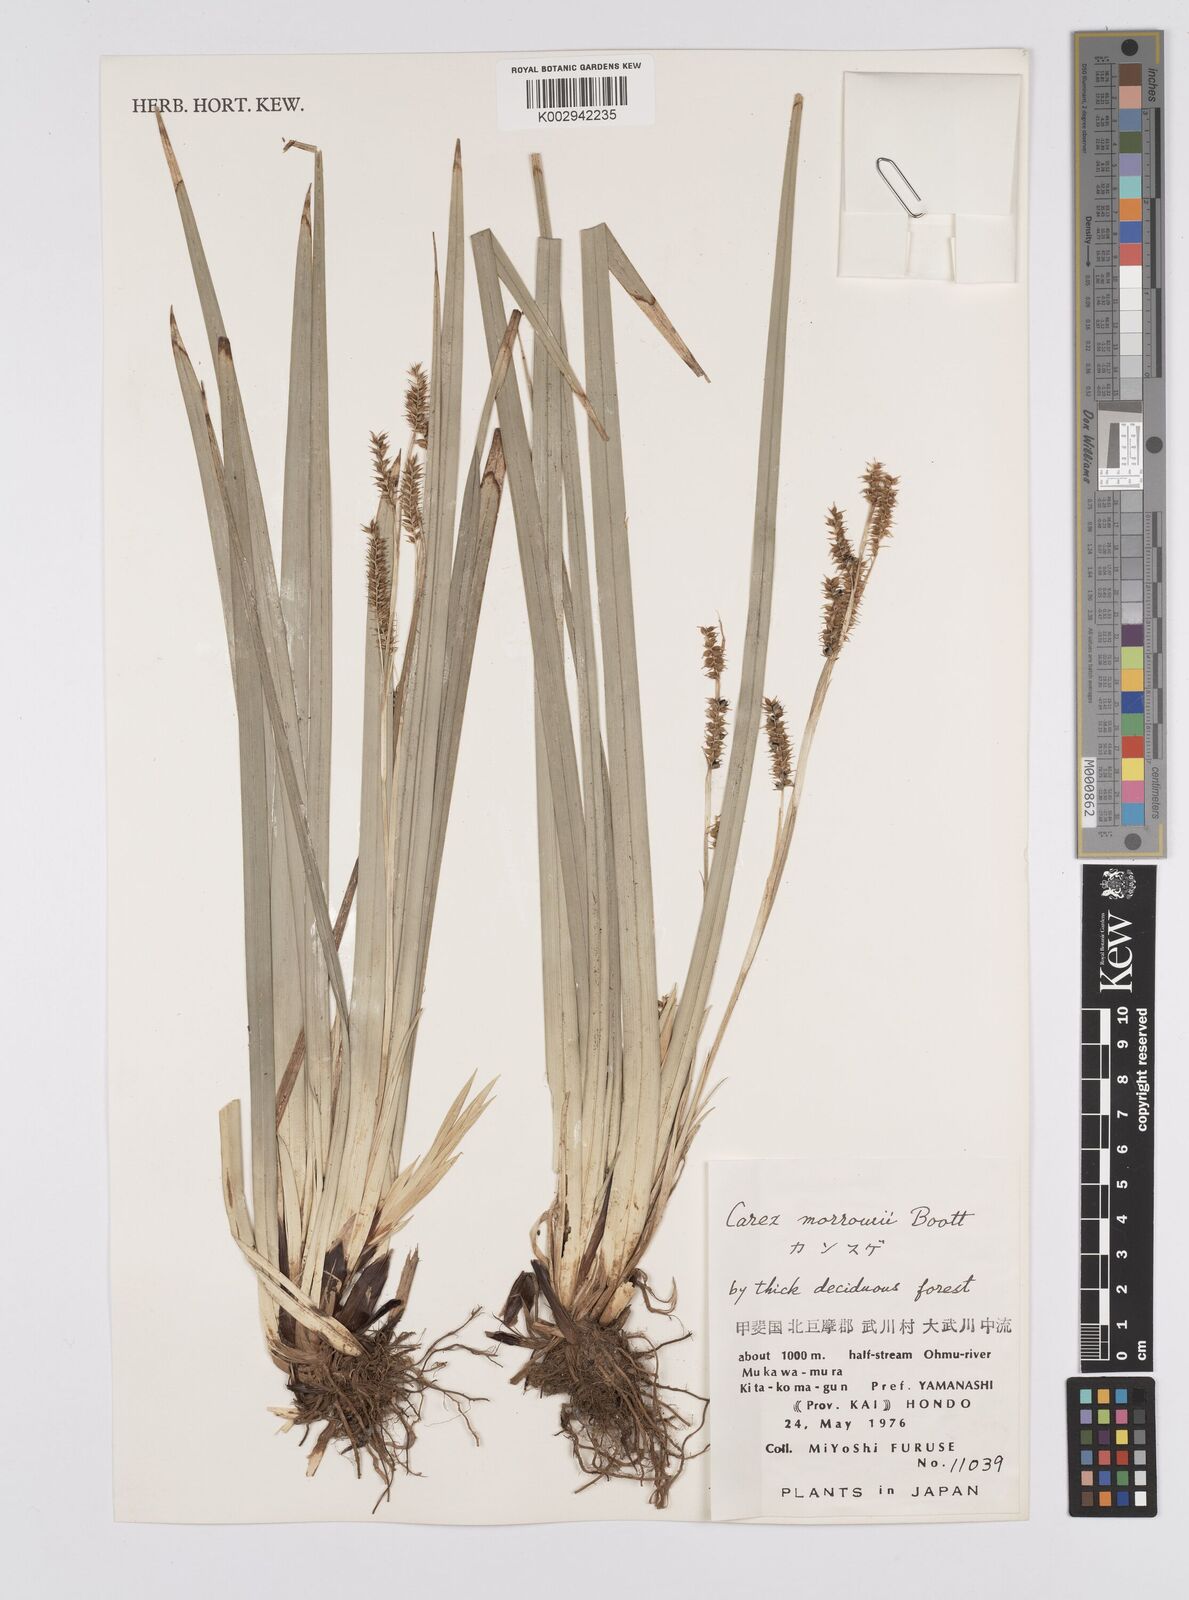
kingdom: Plantae
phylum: Tracheophyta
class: Liliopsida
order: Poales
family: Cyperaceae
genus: Carex
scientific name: Carex morrowii
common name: Japanese sedge
